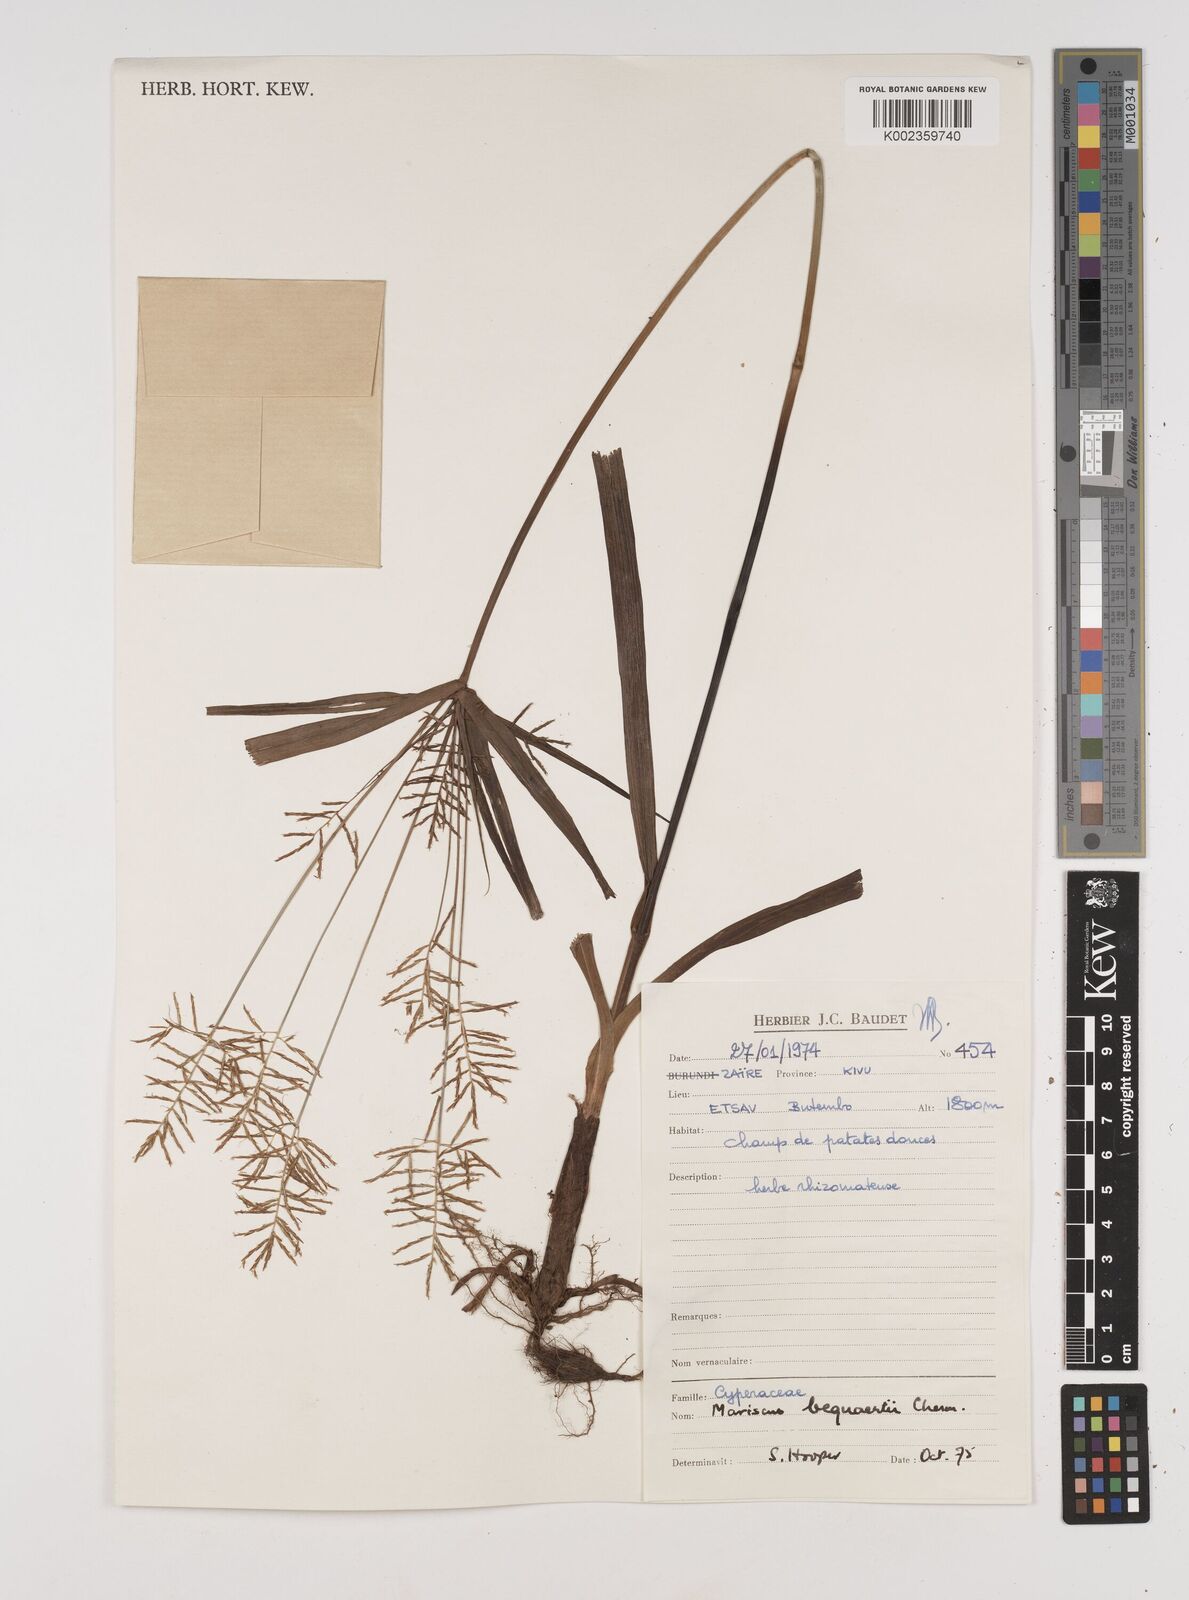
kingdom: Plantae
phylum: Tracheophyta
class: Liliopsida
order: Poales
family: Cyperaceae
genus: Cyperus
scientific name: Cyperus ferrugineoviridis
